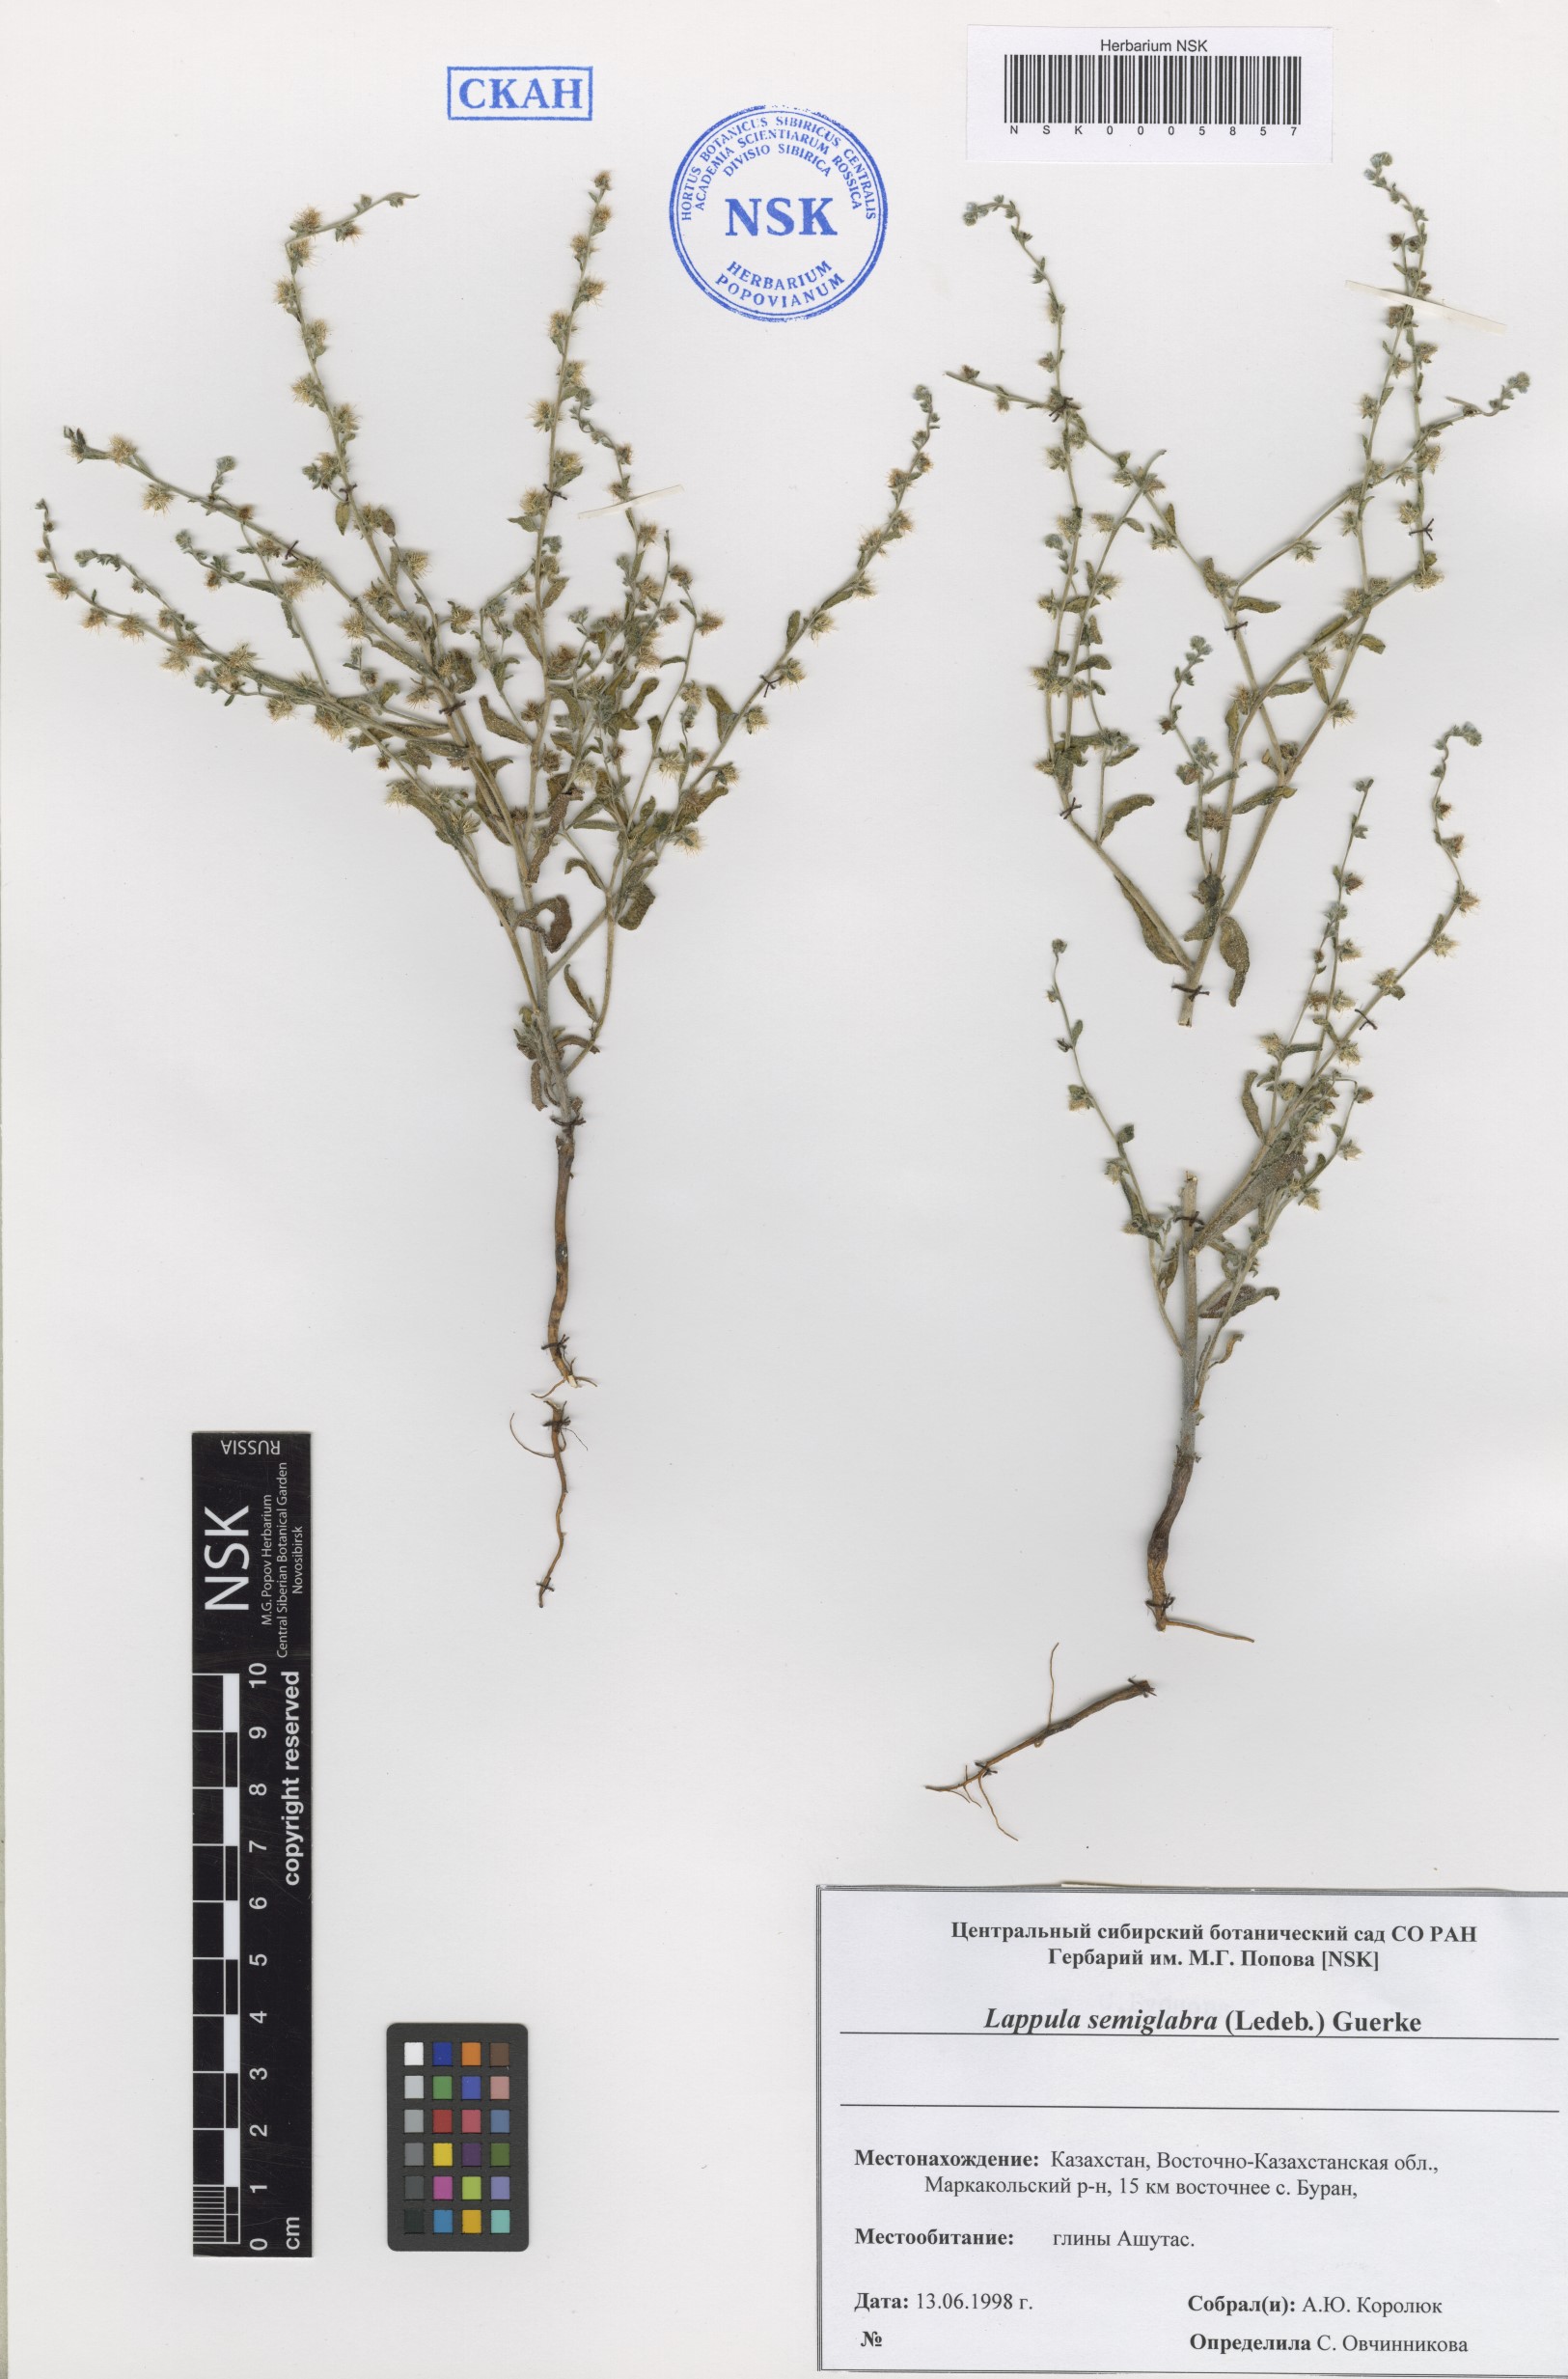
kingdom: Plantae
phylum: Tracheophyta
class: Magnoliopsida
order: Boraginales
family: Boraginaceae
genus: Lappula
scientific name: Lappula patula
